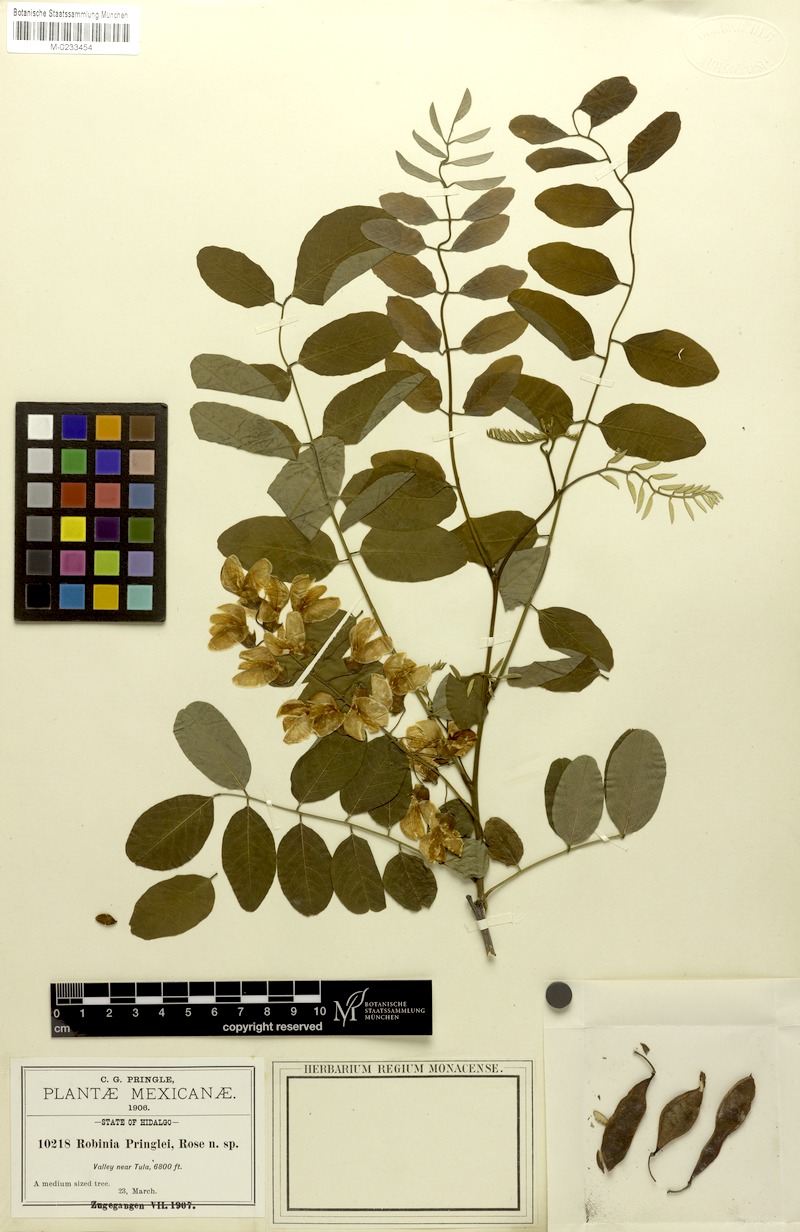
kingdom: Plantae
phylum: Tracheophyta
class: Magnoliopsida
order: Fabales
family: Fabaceae
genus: Robinia
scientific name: Robinia pseudoacacia
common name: Black locust
